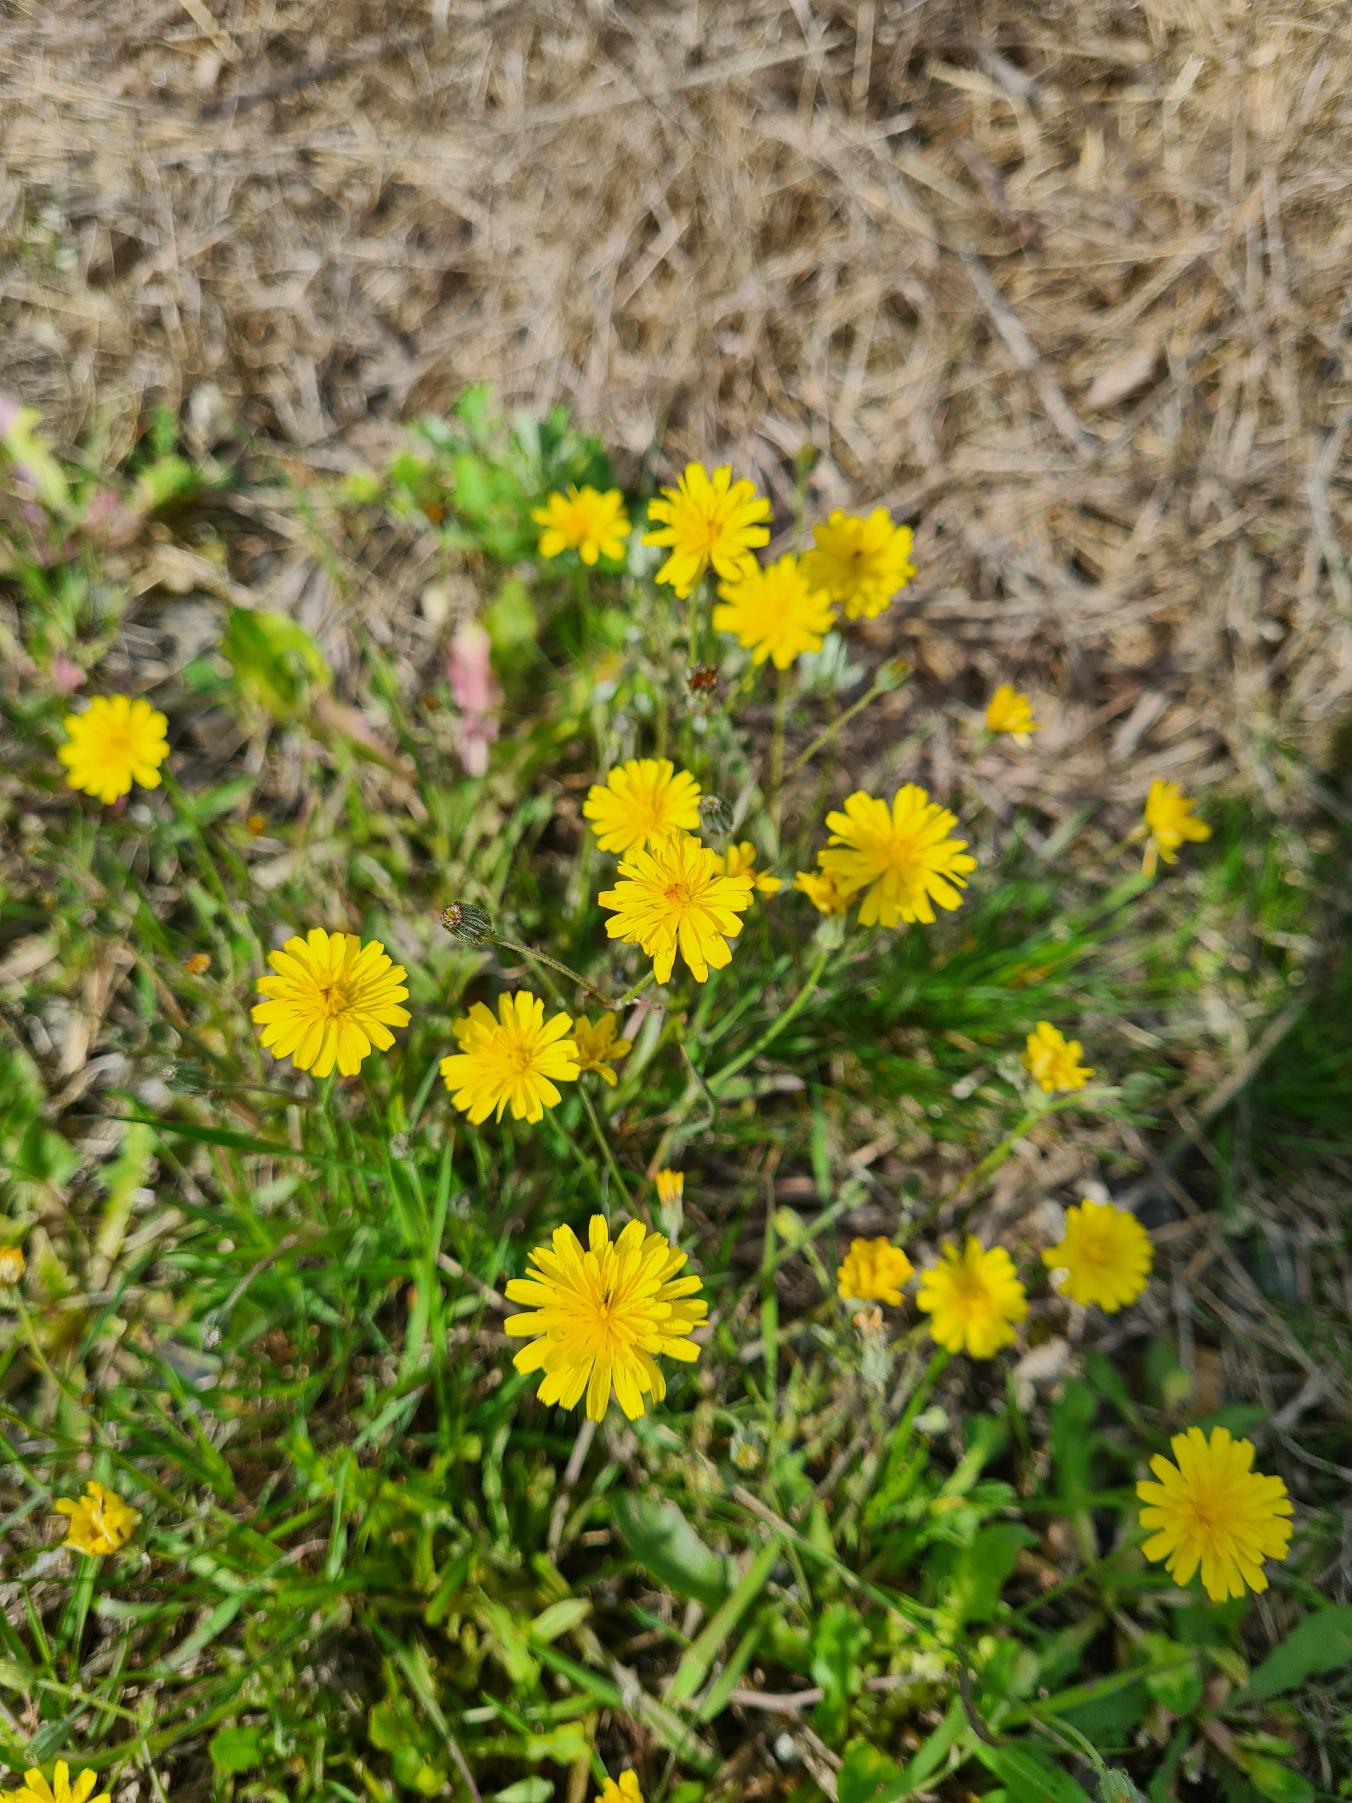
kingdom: Plantae
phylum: Tracheophyta
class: Magnoliopsida
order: Asterales
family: Asteraceae
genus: Crepis
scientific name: Crepis capillaris
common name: Grøn høgeskæg
